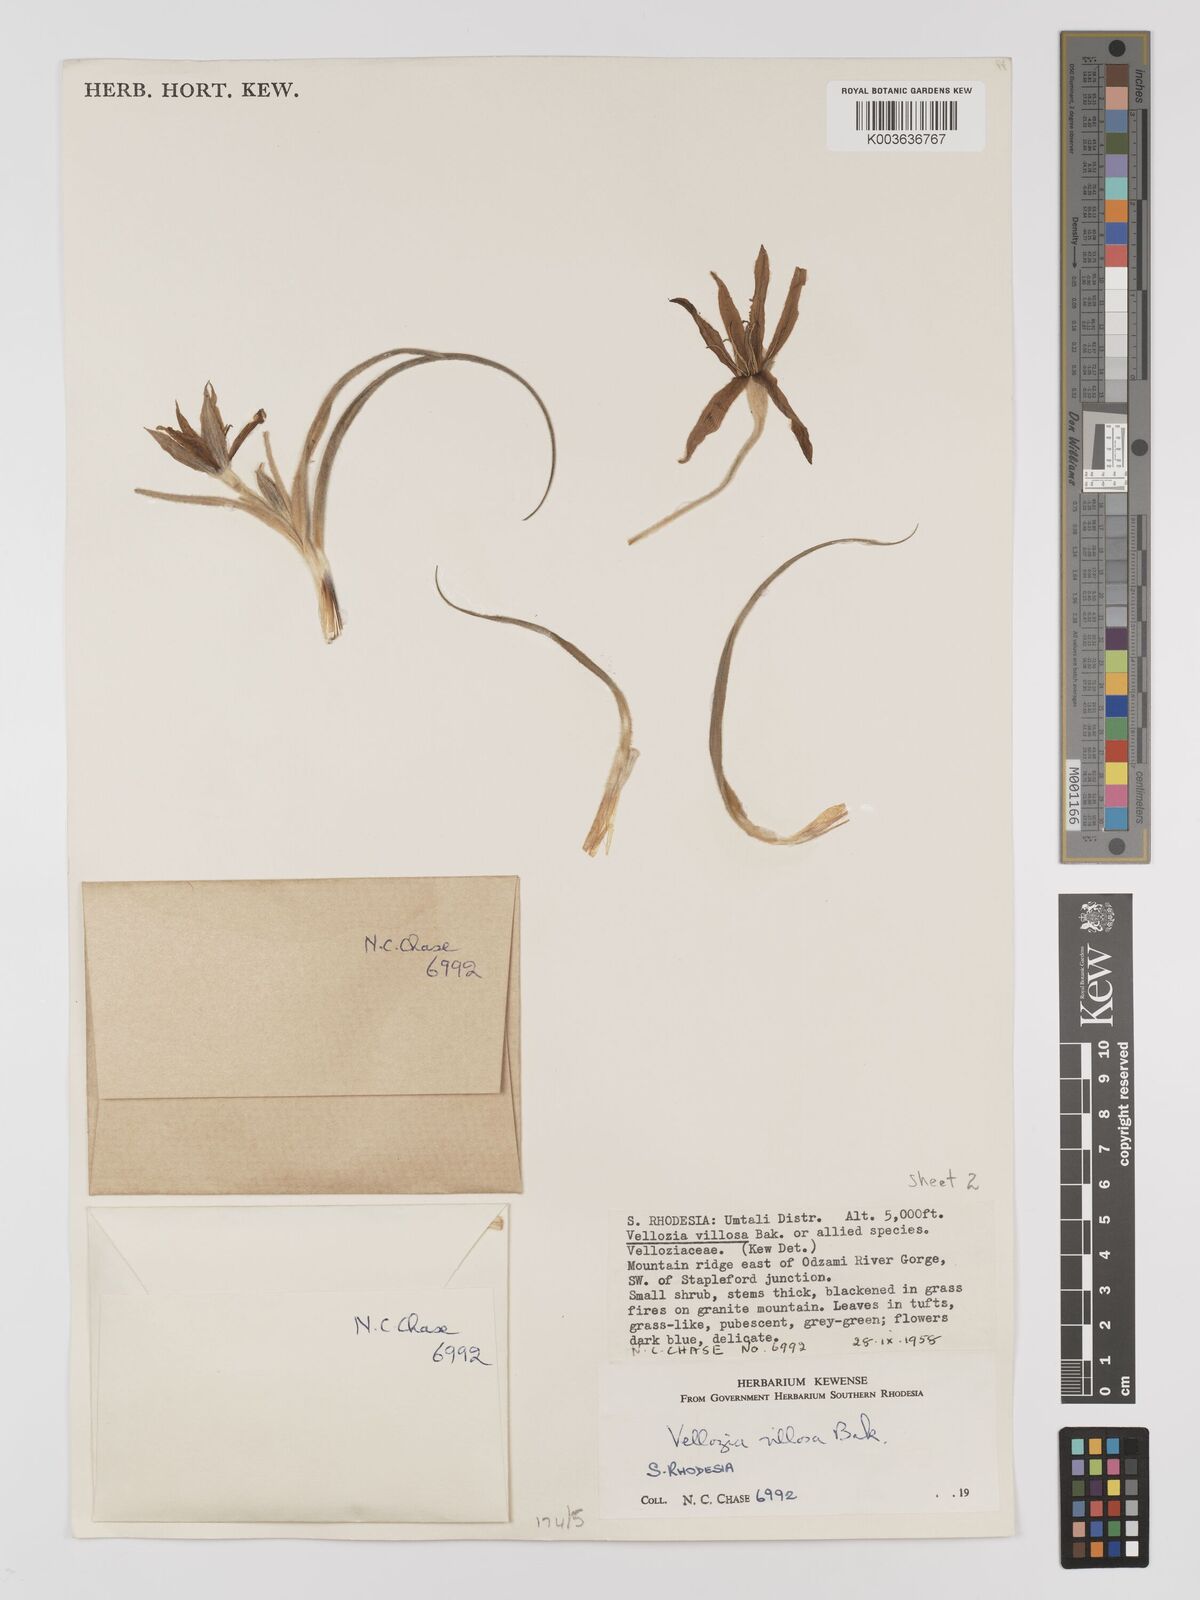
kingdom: Plantae
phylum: Tracheophyta
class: Liliopsida
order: Pandanales
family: Velloziaceae
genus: Xerophyta
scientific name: Xerophyta villosa
